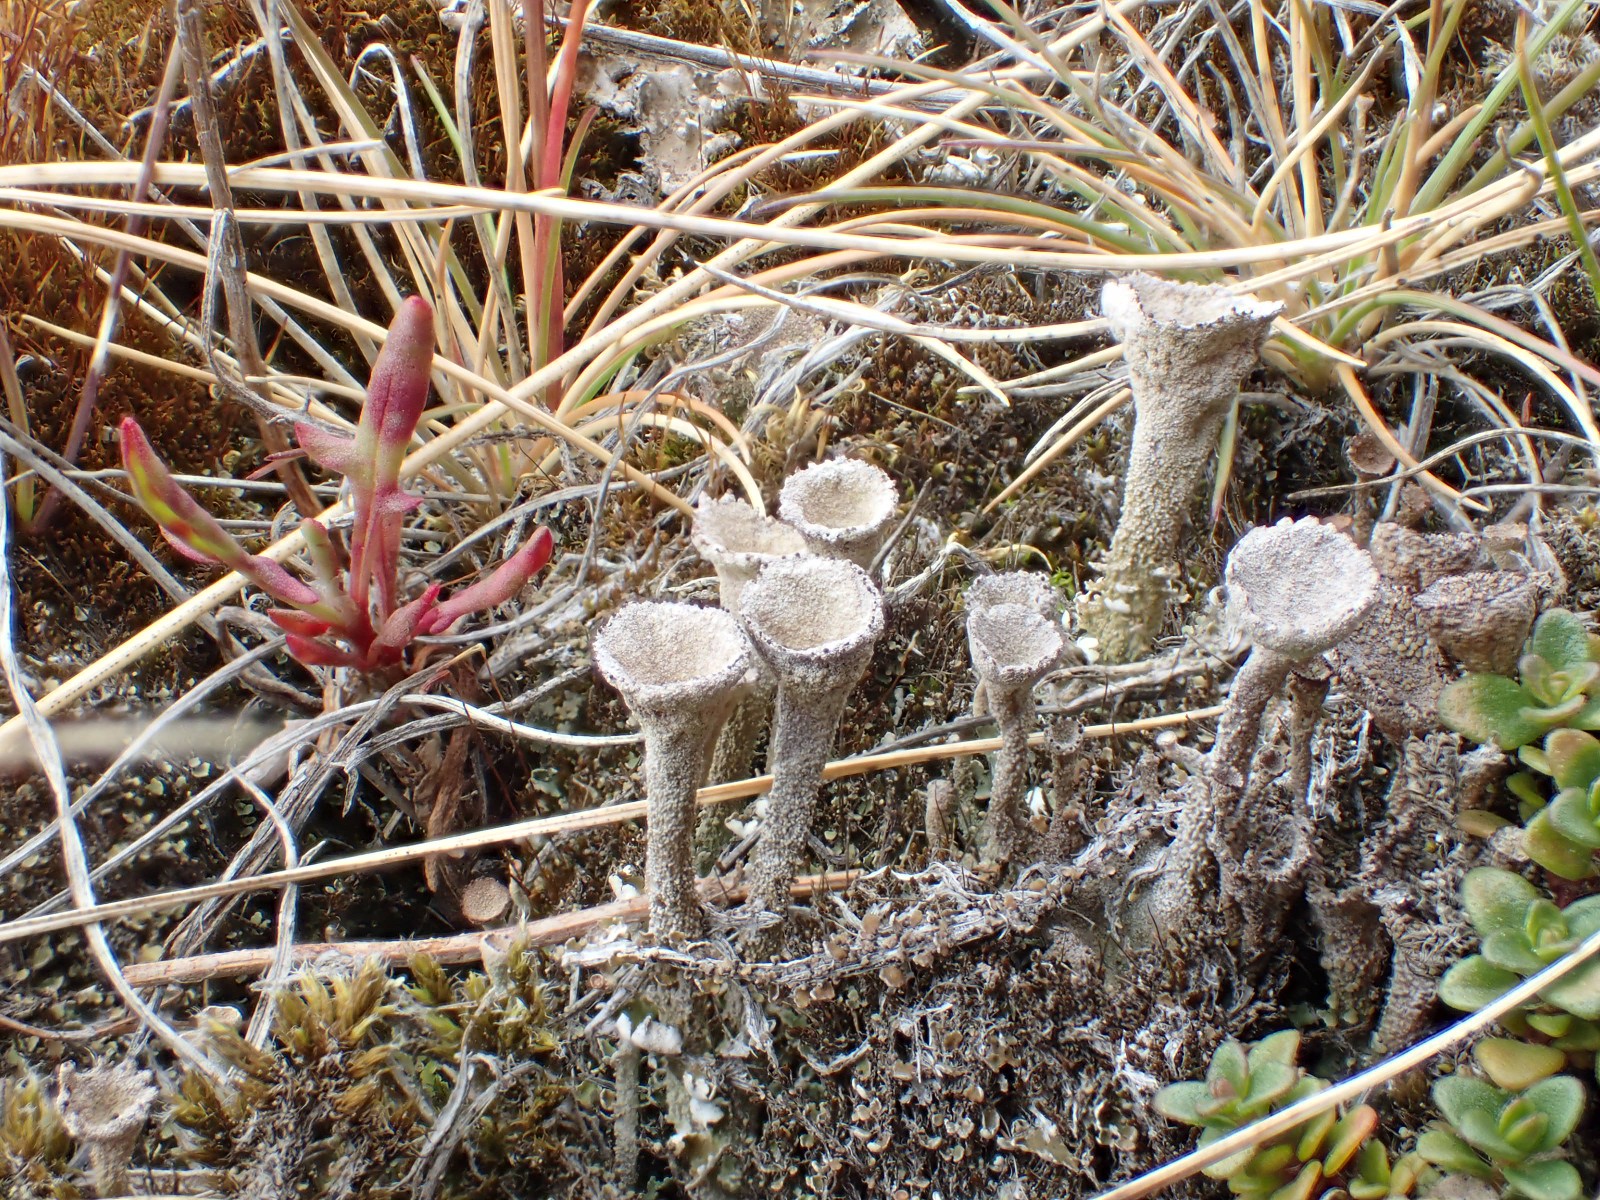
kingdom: Fungi
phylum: Ascomycota
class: Lecanoromycetes
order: Lecanorales
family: Cladoniaceae
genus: Cladonia
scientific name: Cladonia
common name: brungrøn bægerlav
